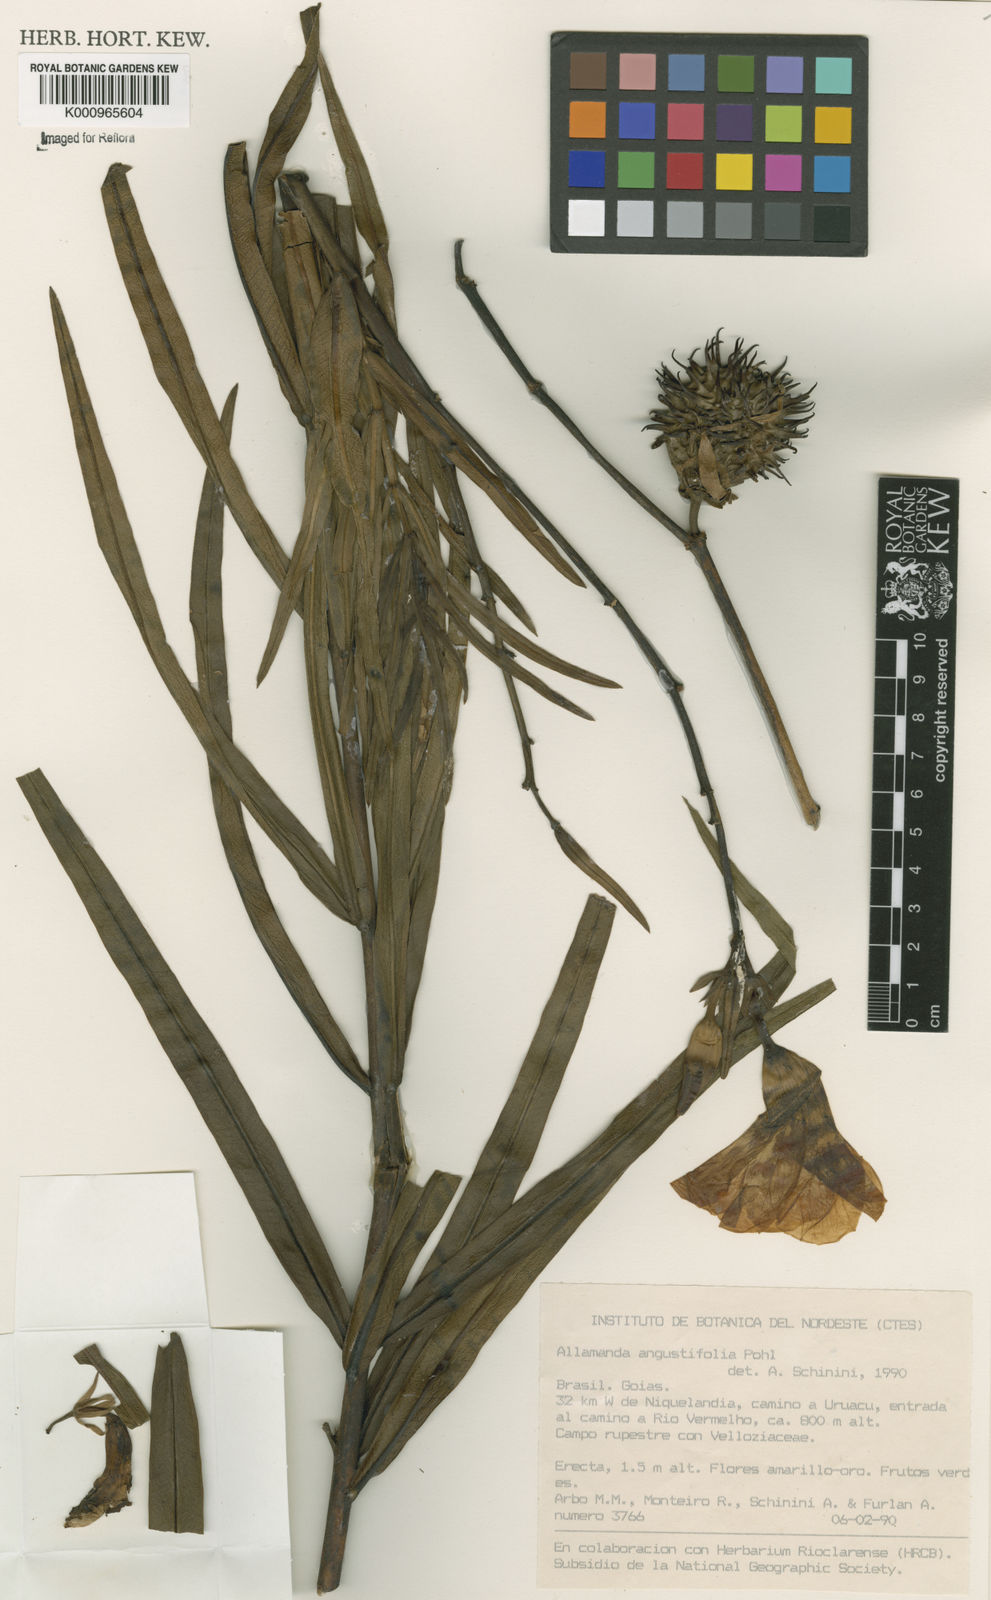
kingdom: Plantae
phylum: Tracheophyta
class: Magnoliopsida
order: Gentianales
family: Apocynaceae
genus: Allamanda
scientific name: Allamanda angustifolia
